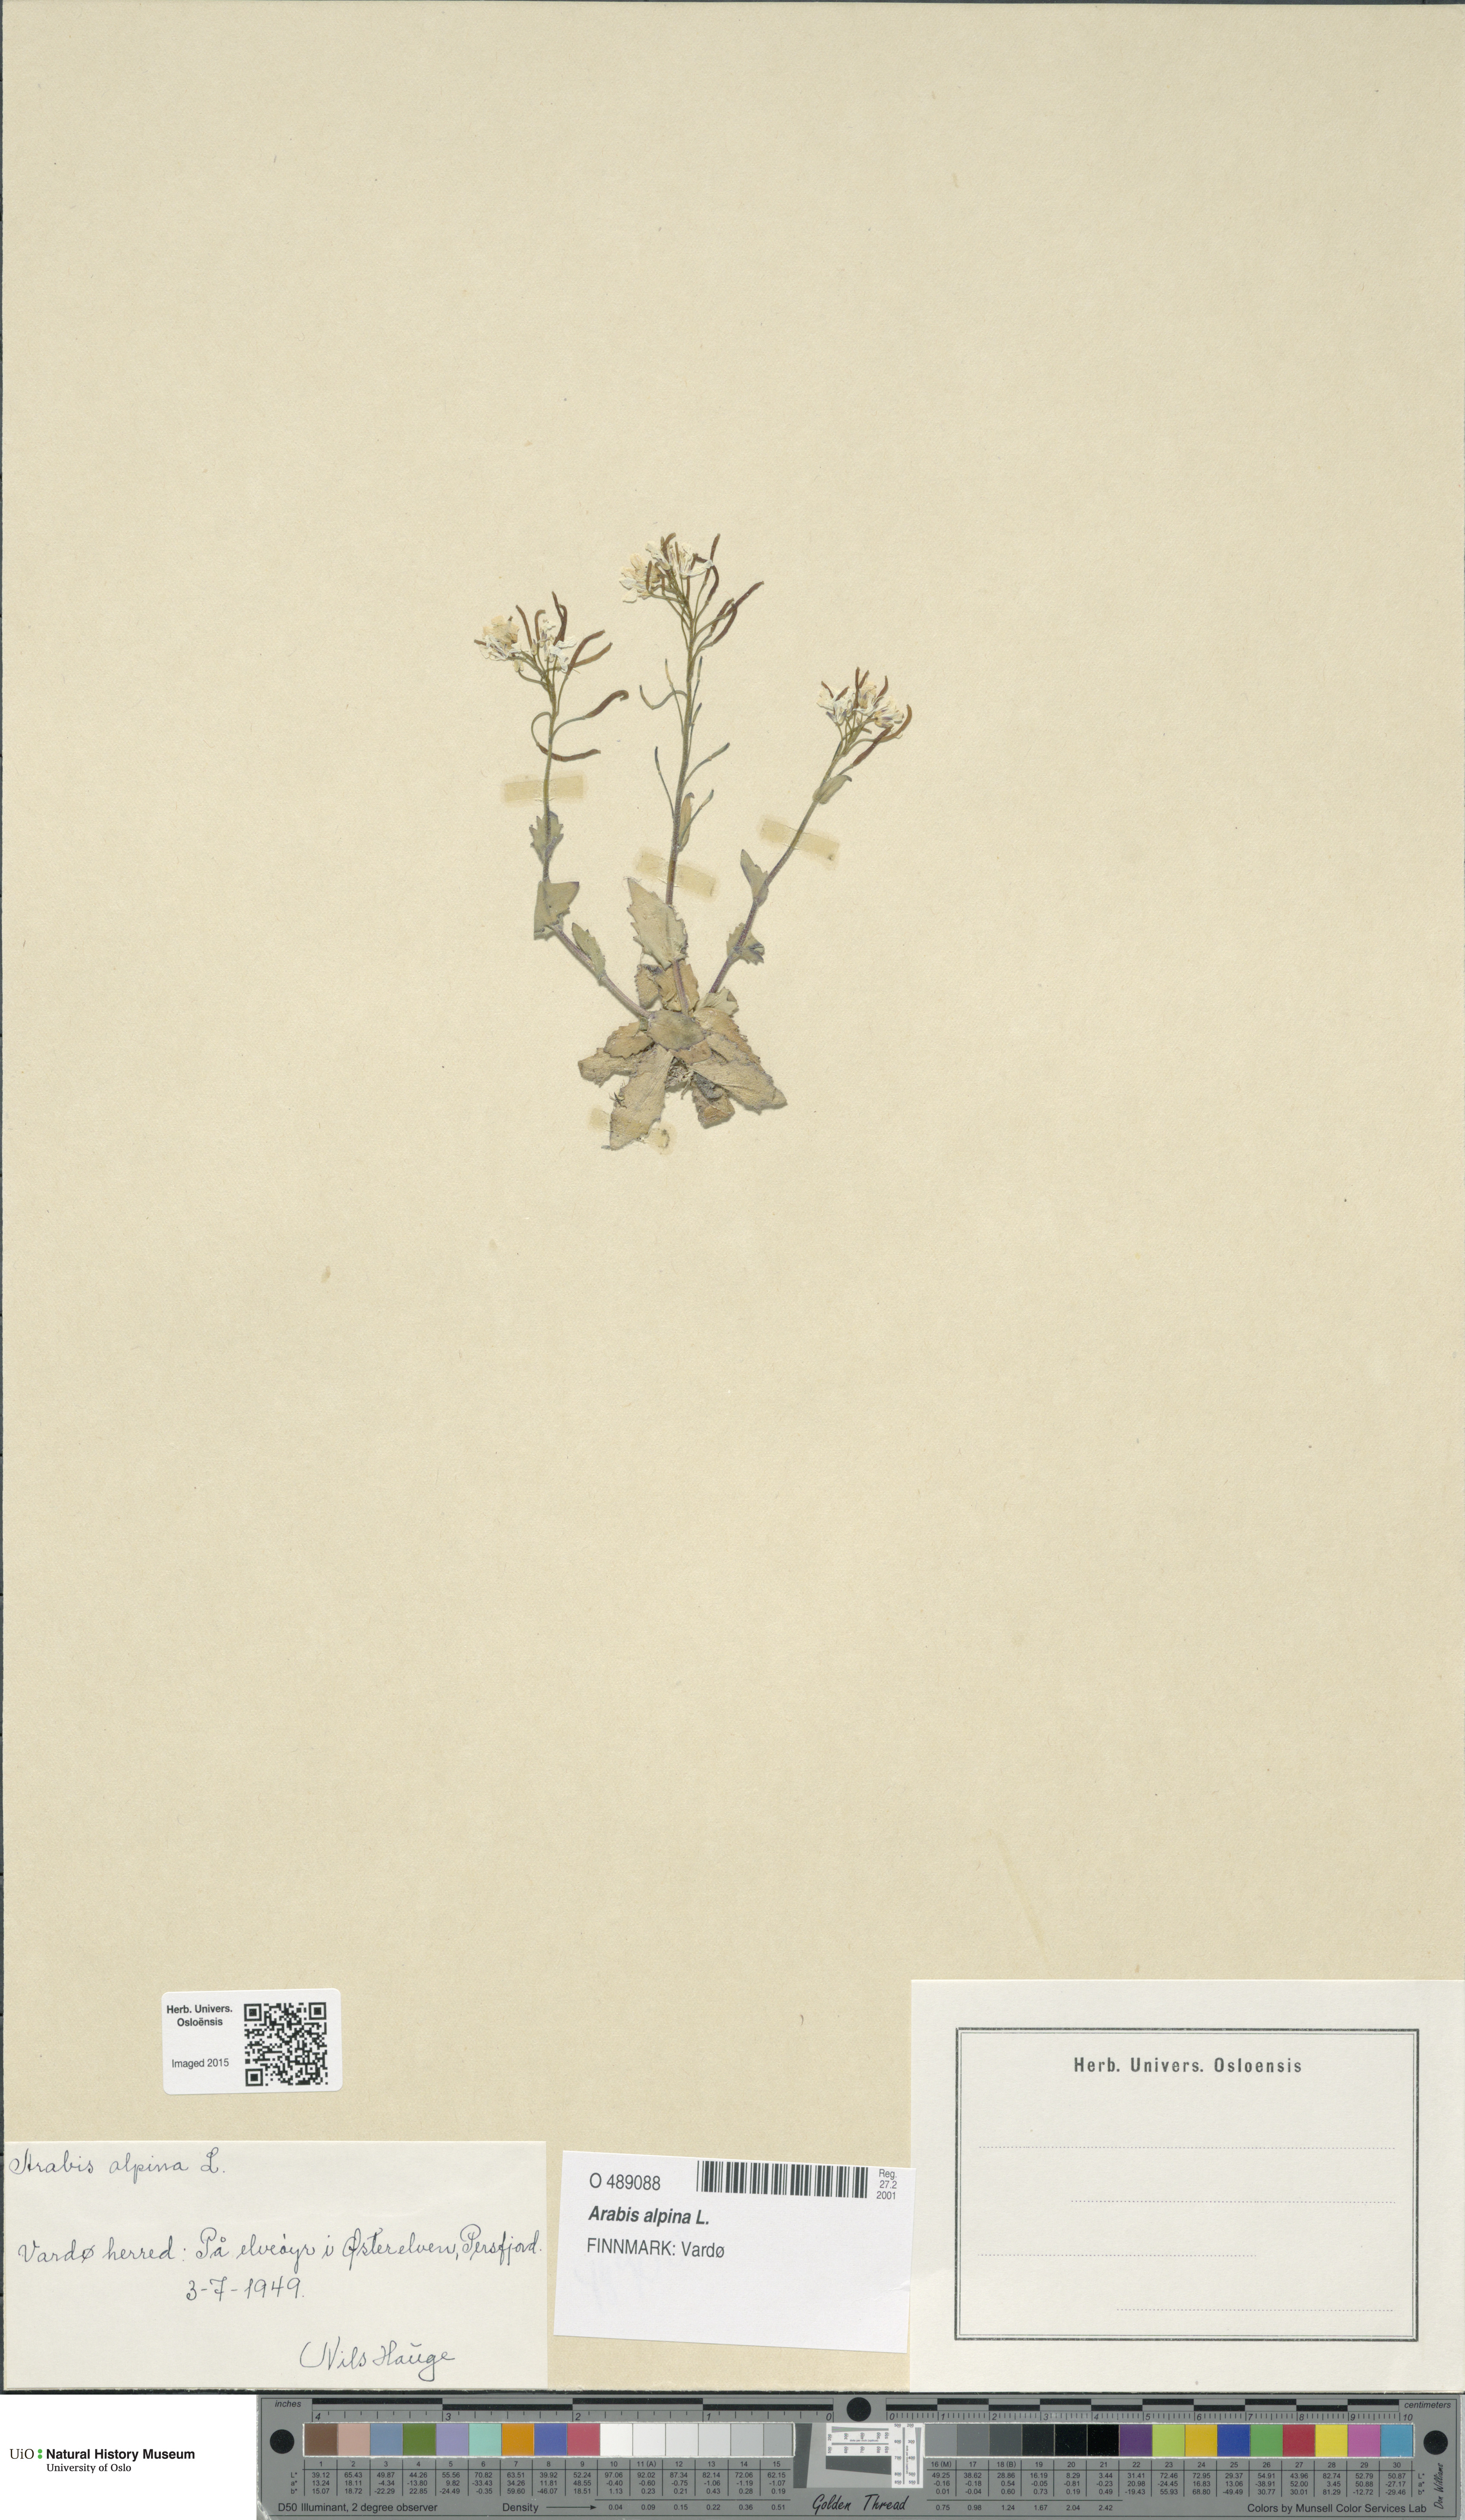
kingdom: Plantae
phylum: Tracheophyta
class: Magnoliopsida
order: Brassicales
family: Brassicaceae
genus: Arabis
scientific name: Arabis alpina
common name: Alpine rock-cress
